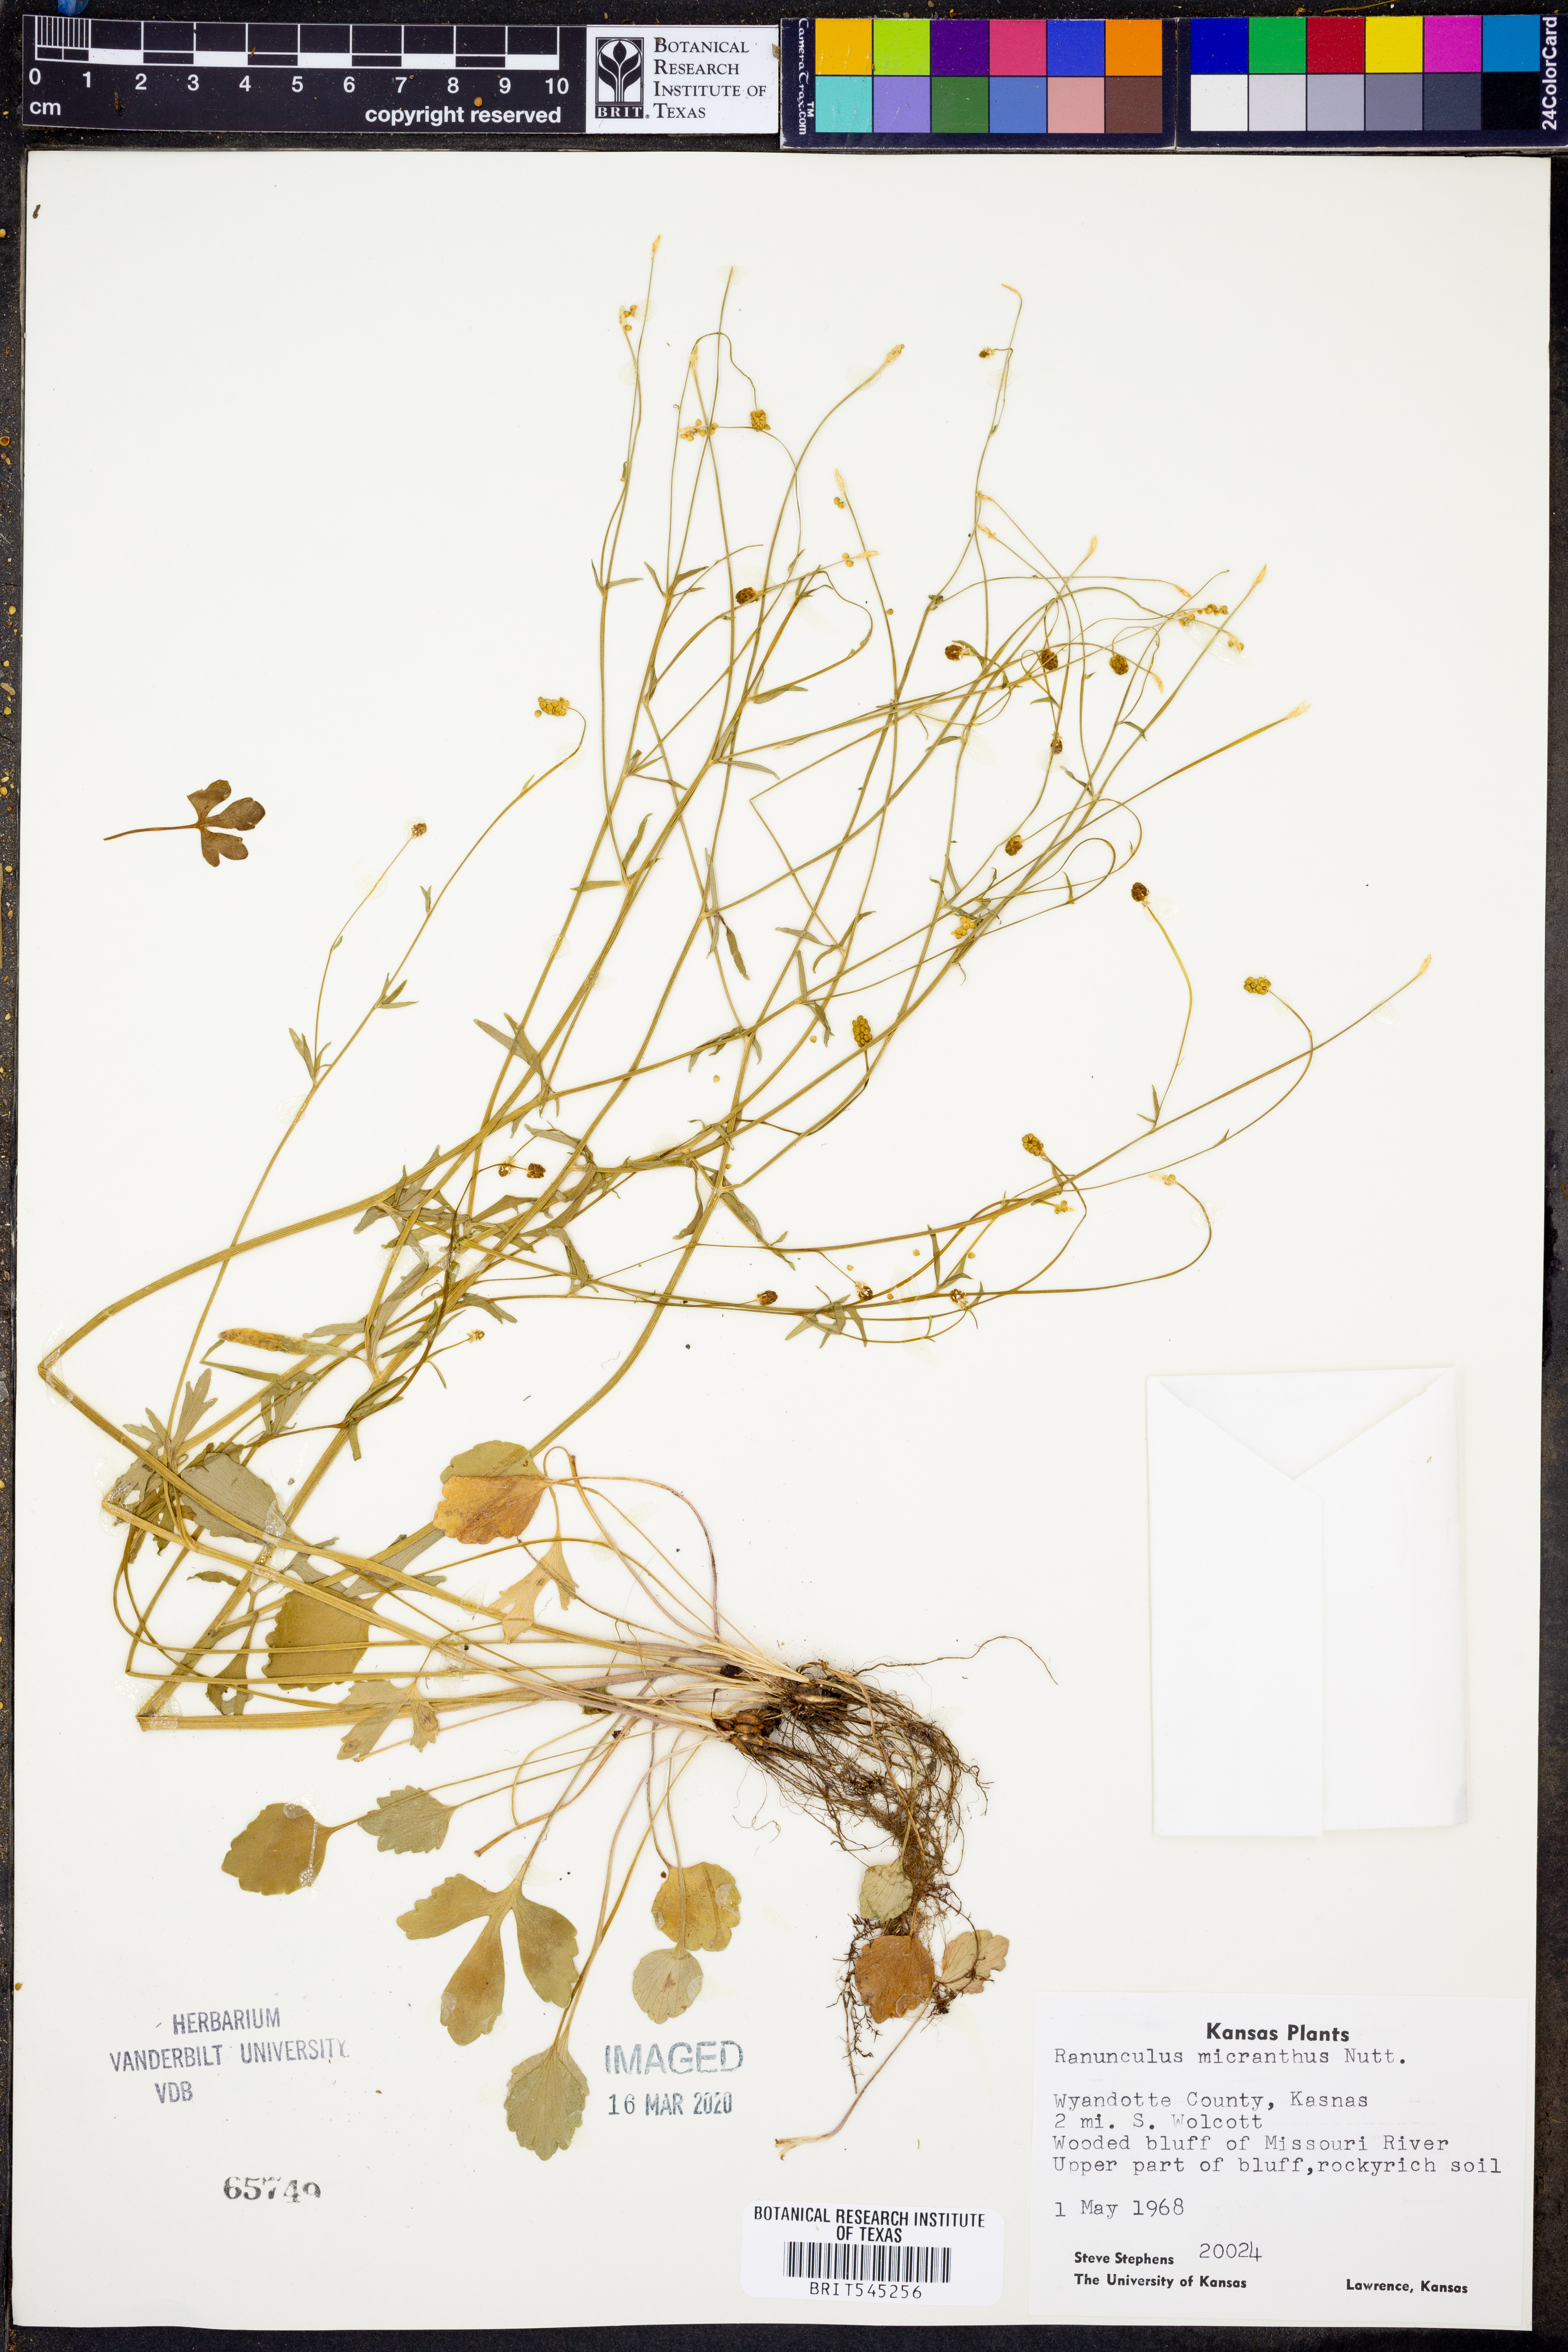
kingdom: Plantae
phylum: Tracheophyta
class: Magnoliopsida
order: Ranunculales
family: Ranunculaceae
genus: Ranunculus
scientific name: Ranunculus micranthus
